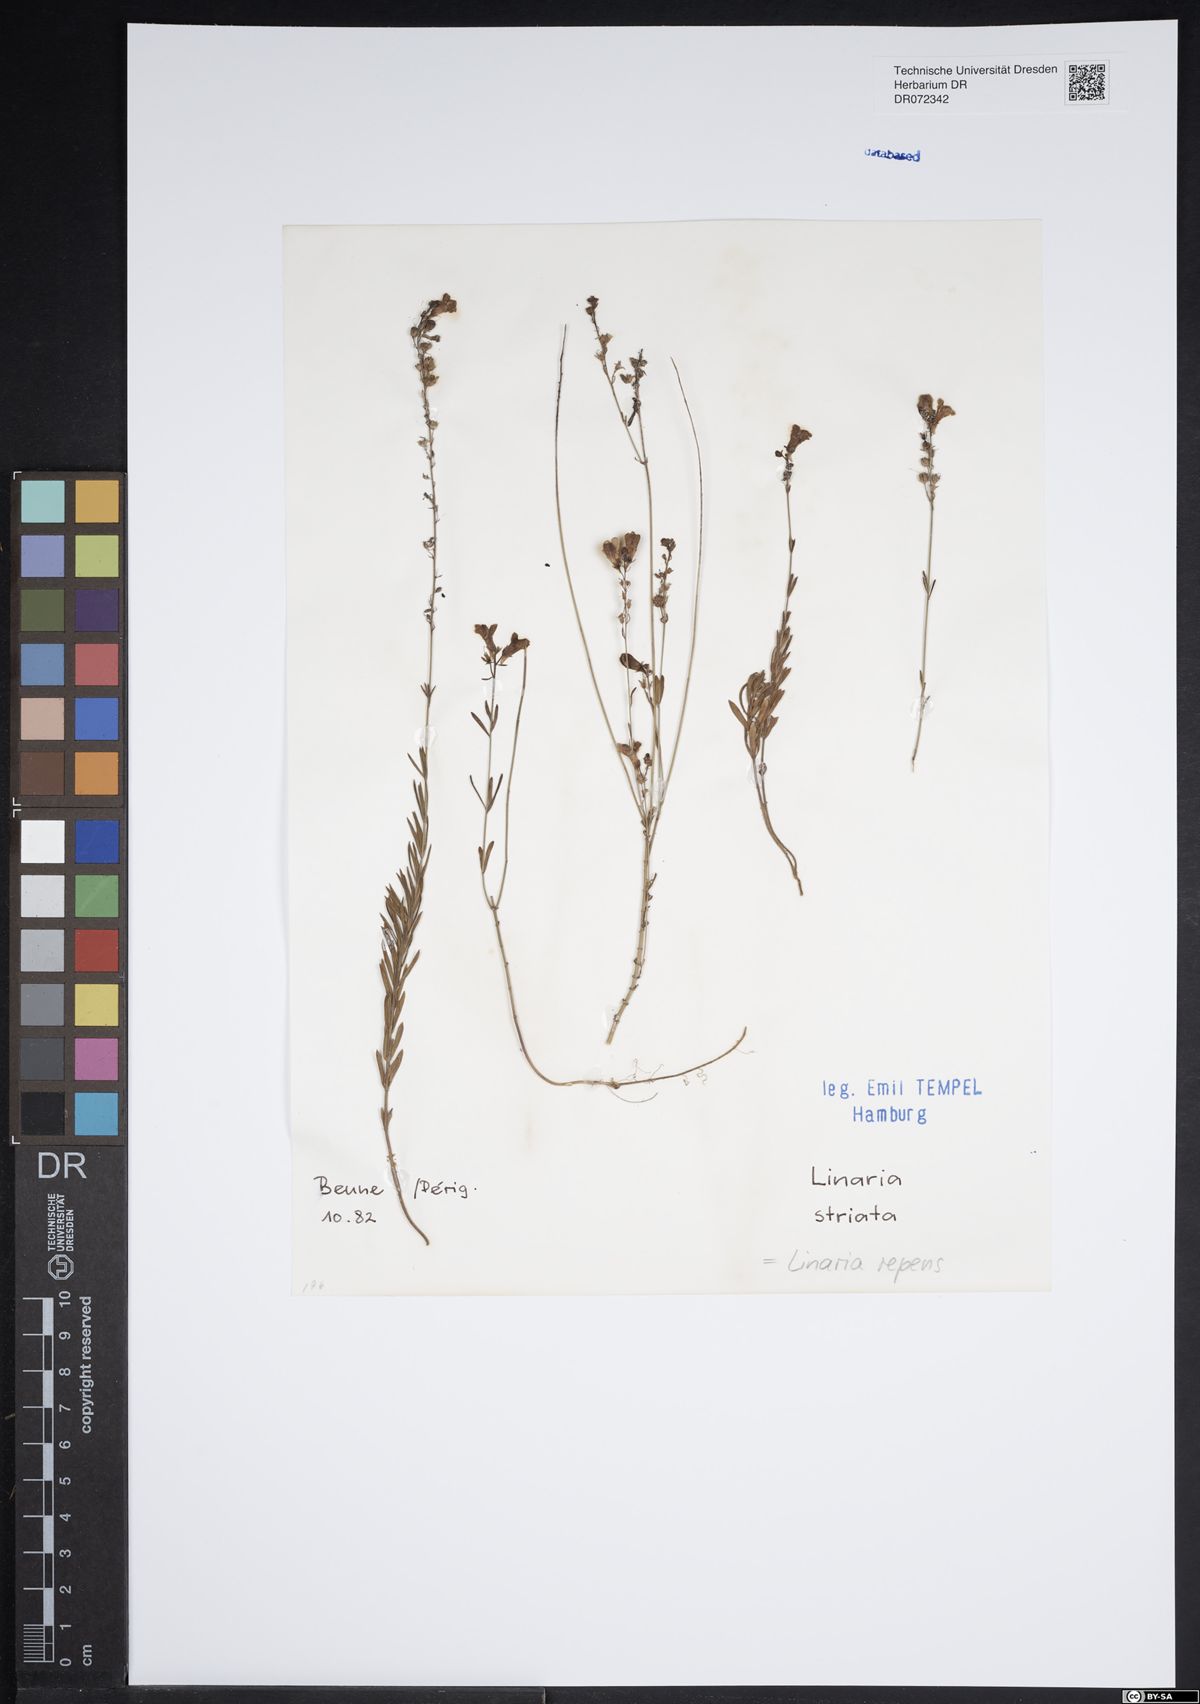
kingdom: Plantae
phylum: Tracheophyta
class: Magnoliopsida
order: Lamiales
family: Plantaginaceae
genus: Linaria
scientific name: Linaria repens
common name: Pale toadflax
